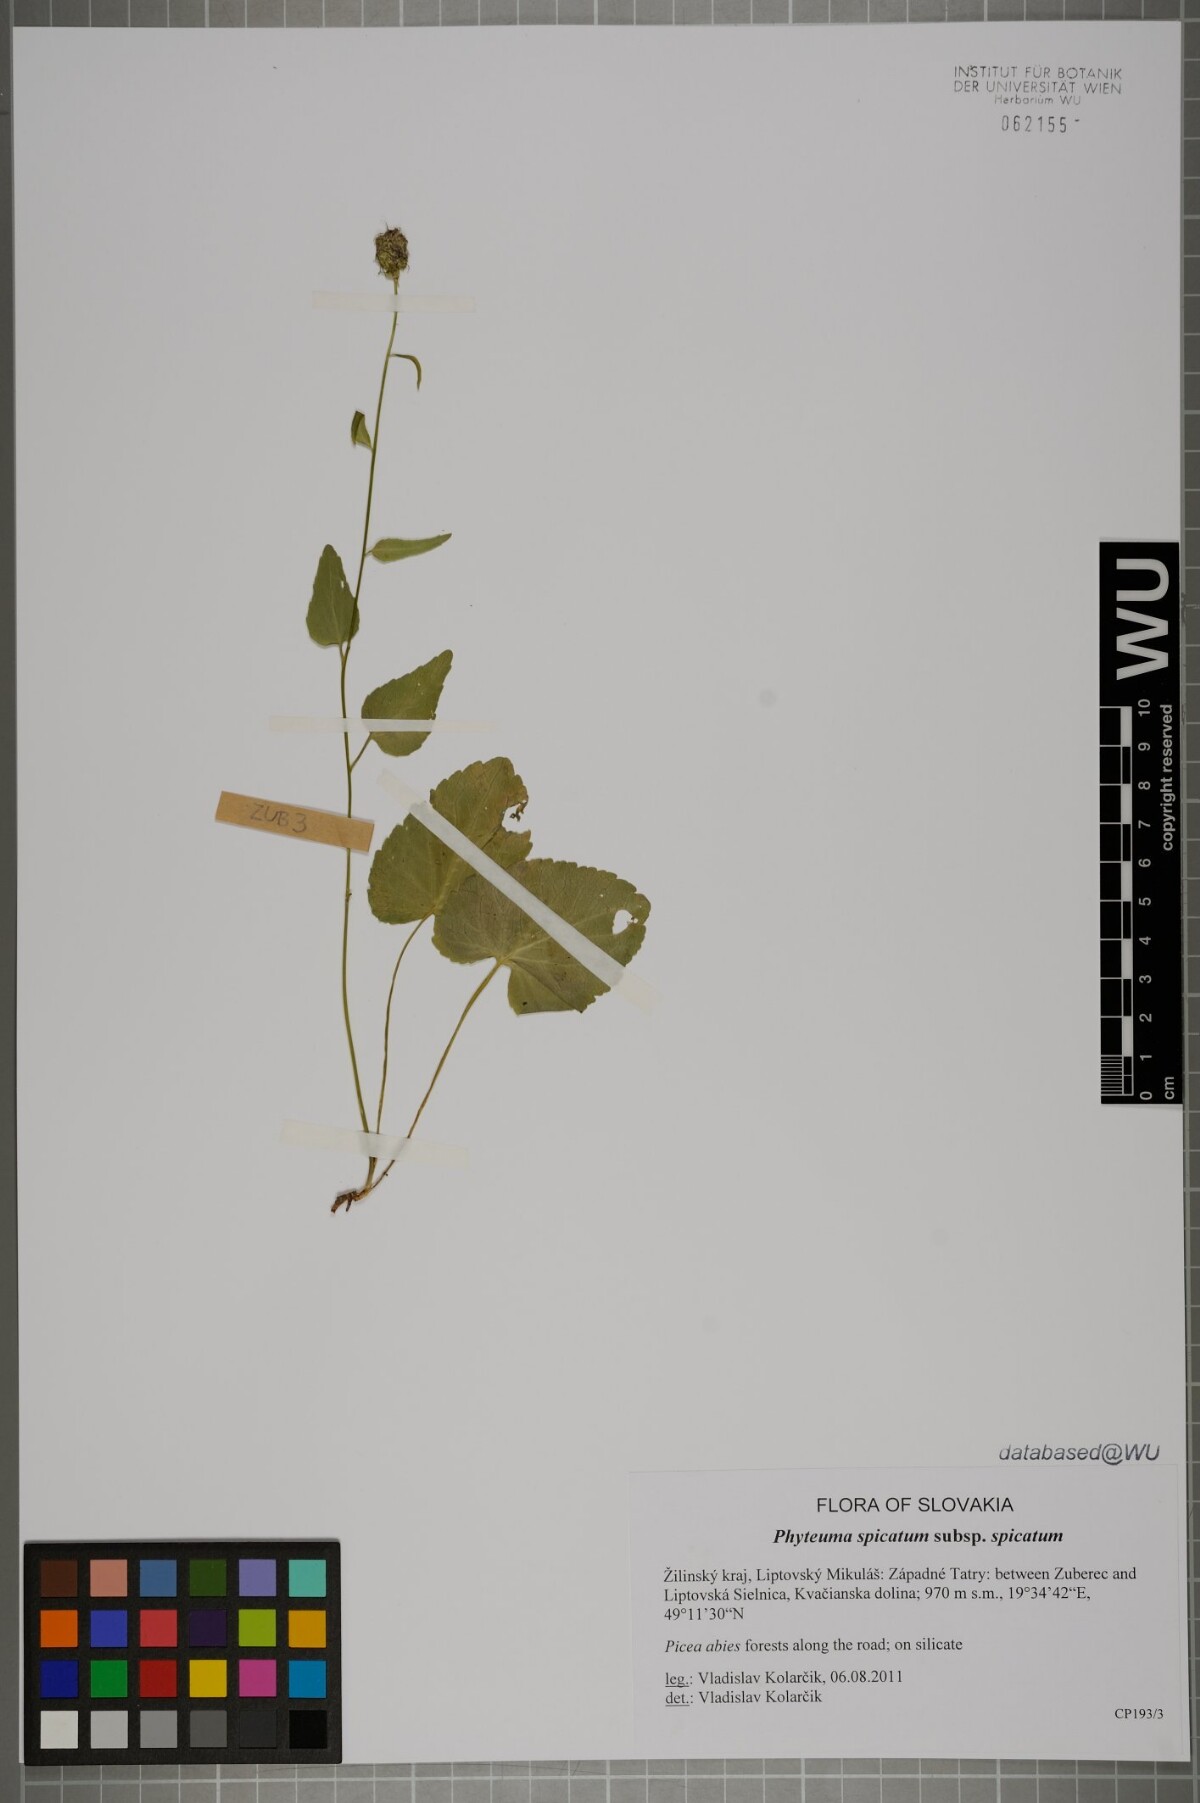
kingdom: Plantae
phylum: Tracheophyta
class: Magnoliopsida
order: Asterales
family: Campanulaceae
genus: Phyteuma
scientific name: Phyteuma spicatum
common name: Spiked rampion
